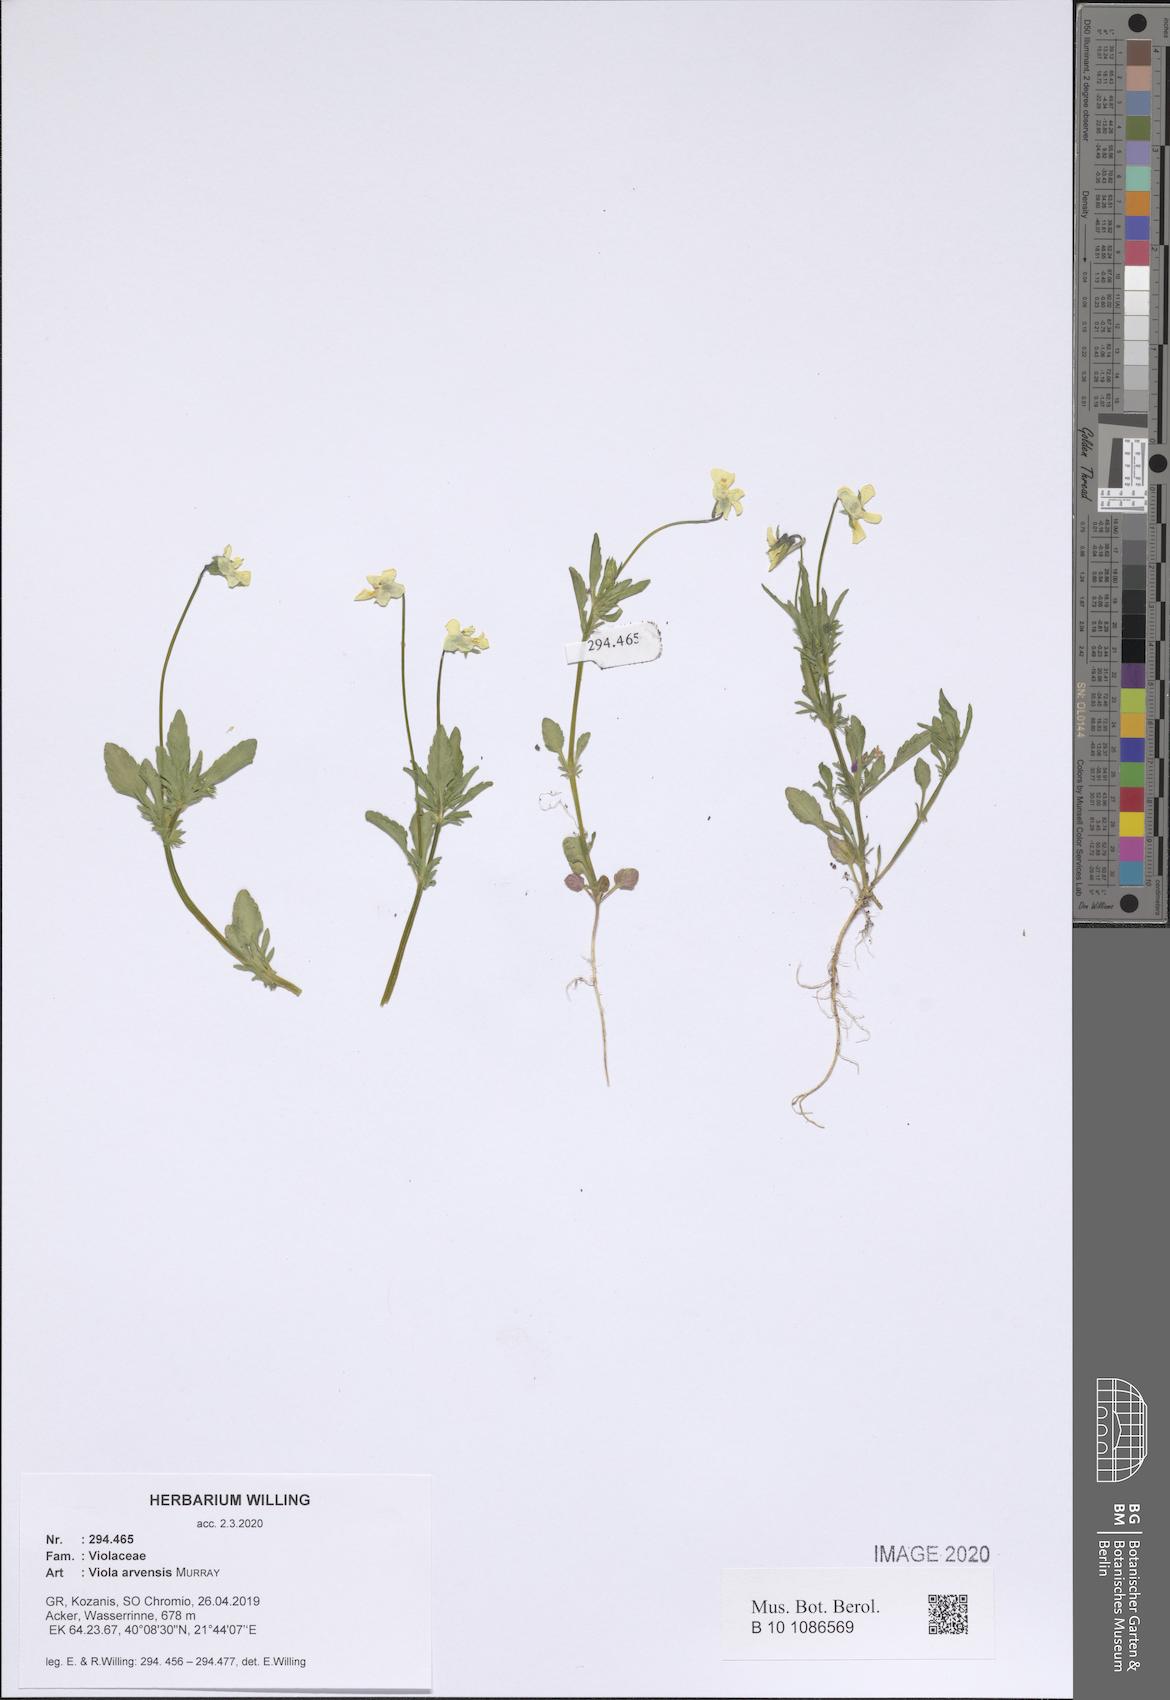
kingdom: Plantae
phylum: Tracheophyta
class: Magnoliopsida
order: Malpighiales
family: Violaceae
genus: Viola
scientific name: Viola arvensis
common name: Field pansy
